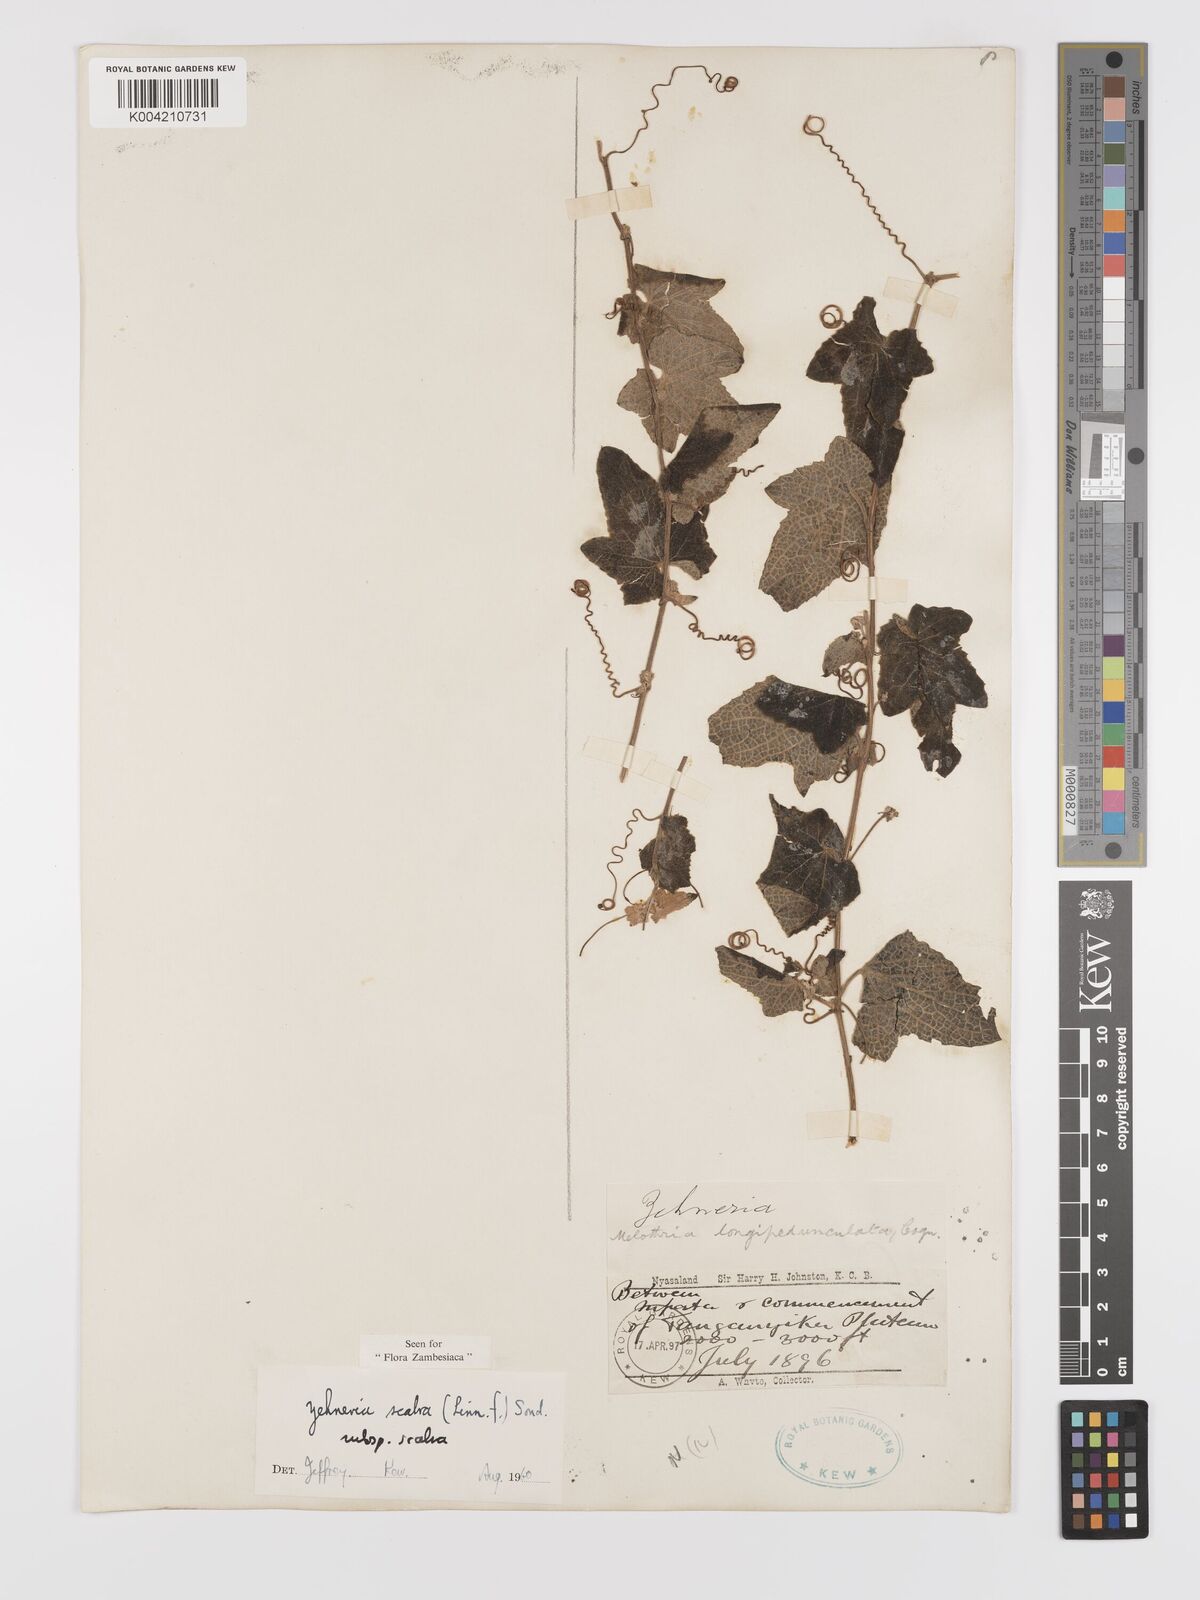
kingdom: Plantae
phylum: Tracheophyta
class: Magnoliopsida
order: Cucurbitales
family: Cucurbitaceae
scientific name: Cucurbitaceae
